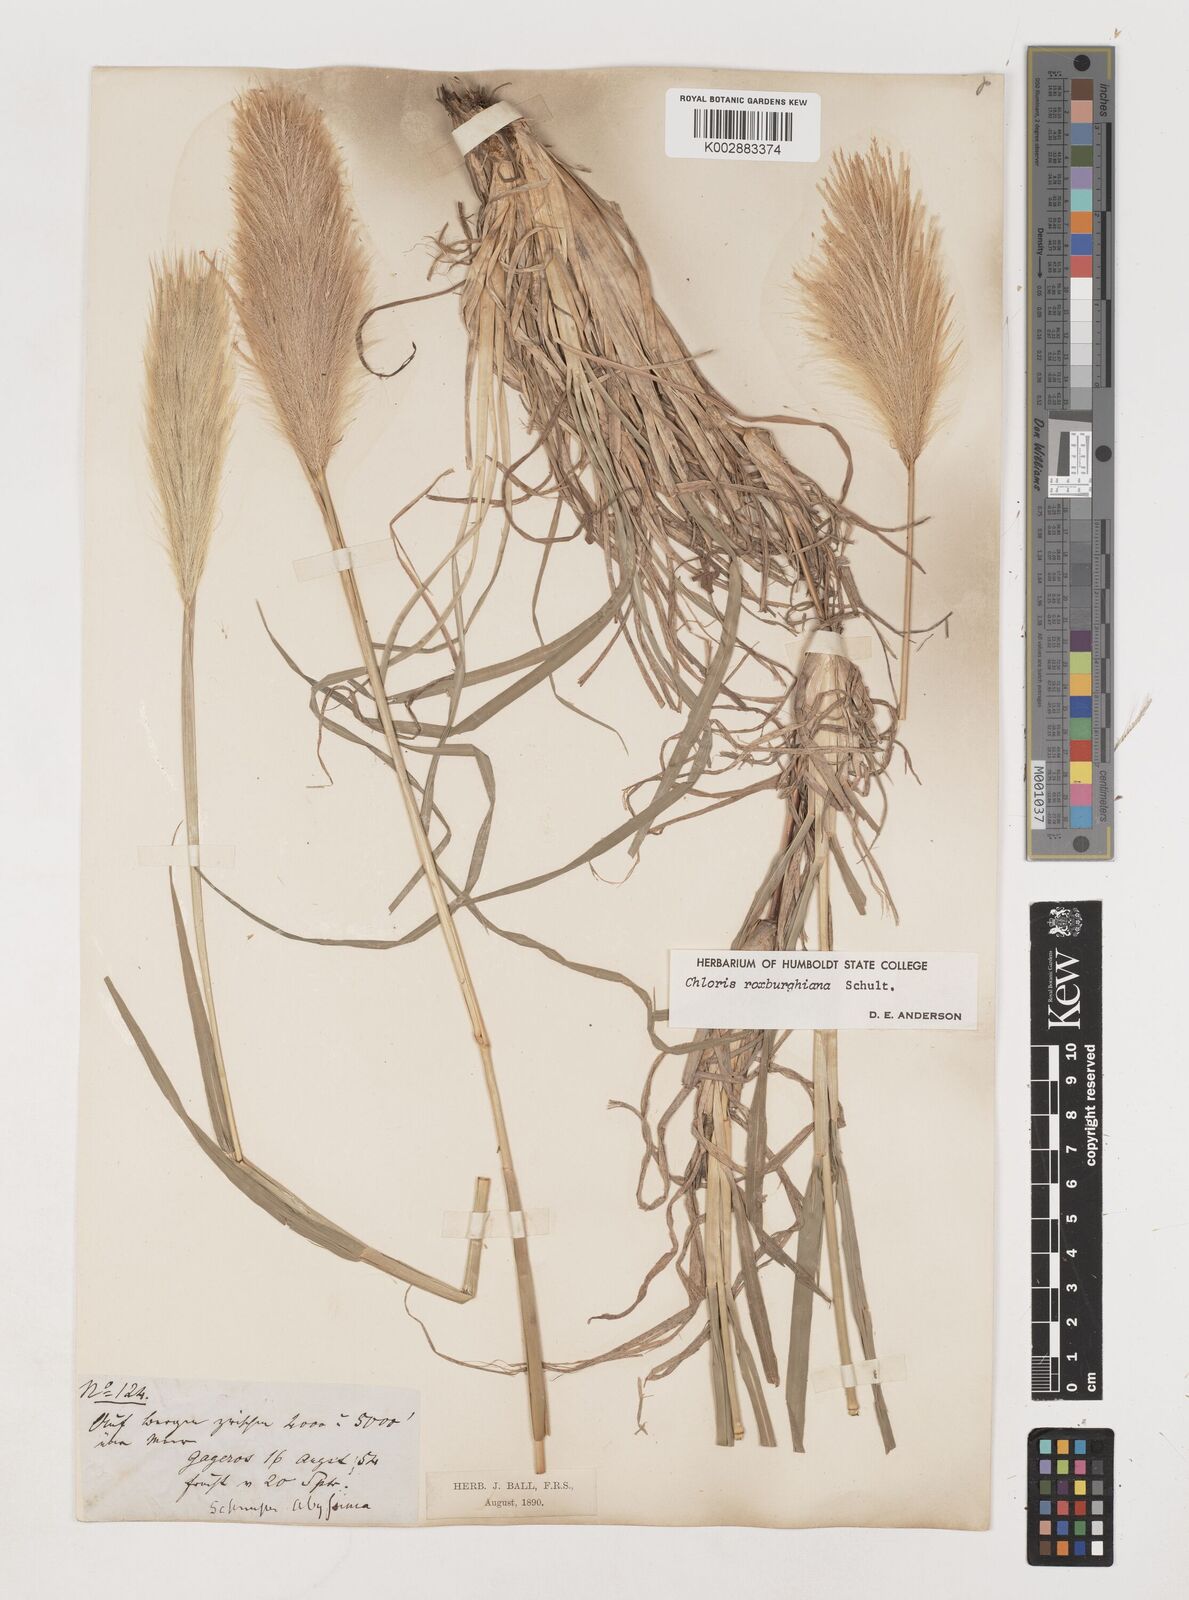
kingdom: Plantae
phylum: Tracheophyta
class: Liliopsida
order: Poales
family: Poaceae
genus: Tetrapogon
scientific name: Tetrapogon roxburghiana
